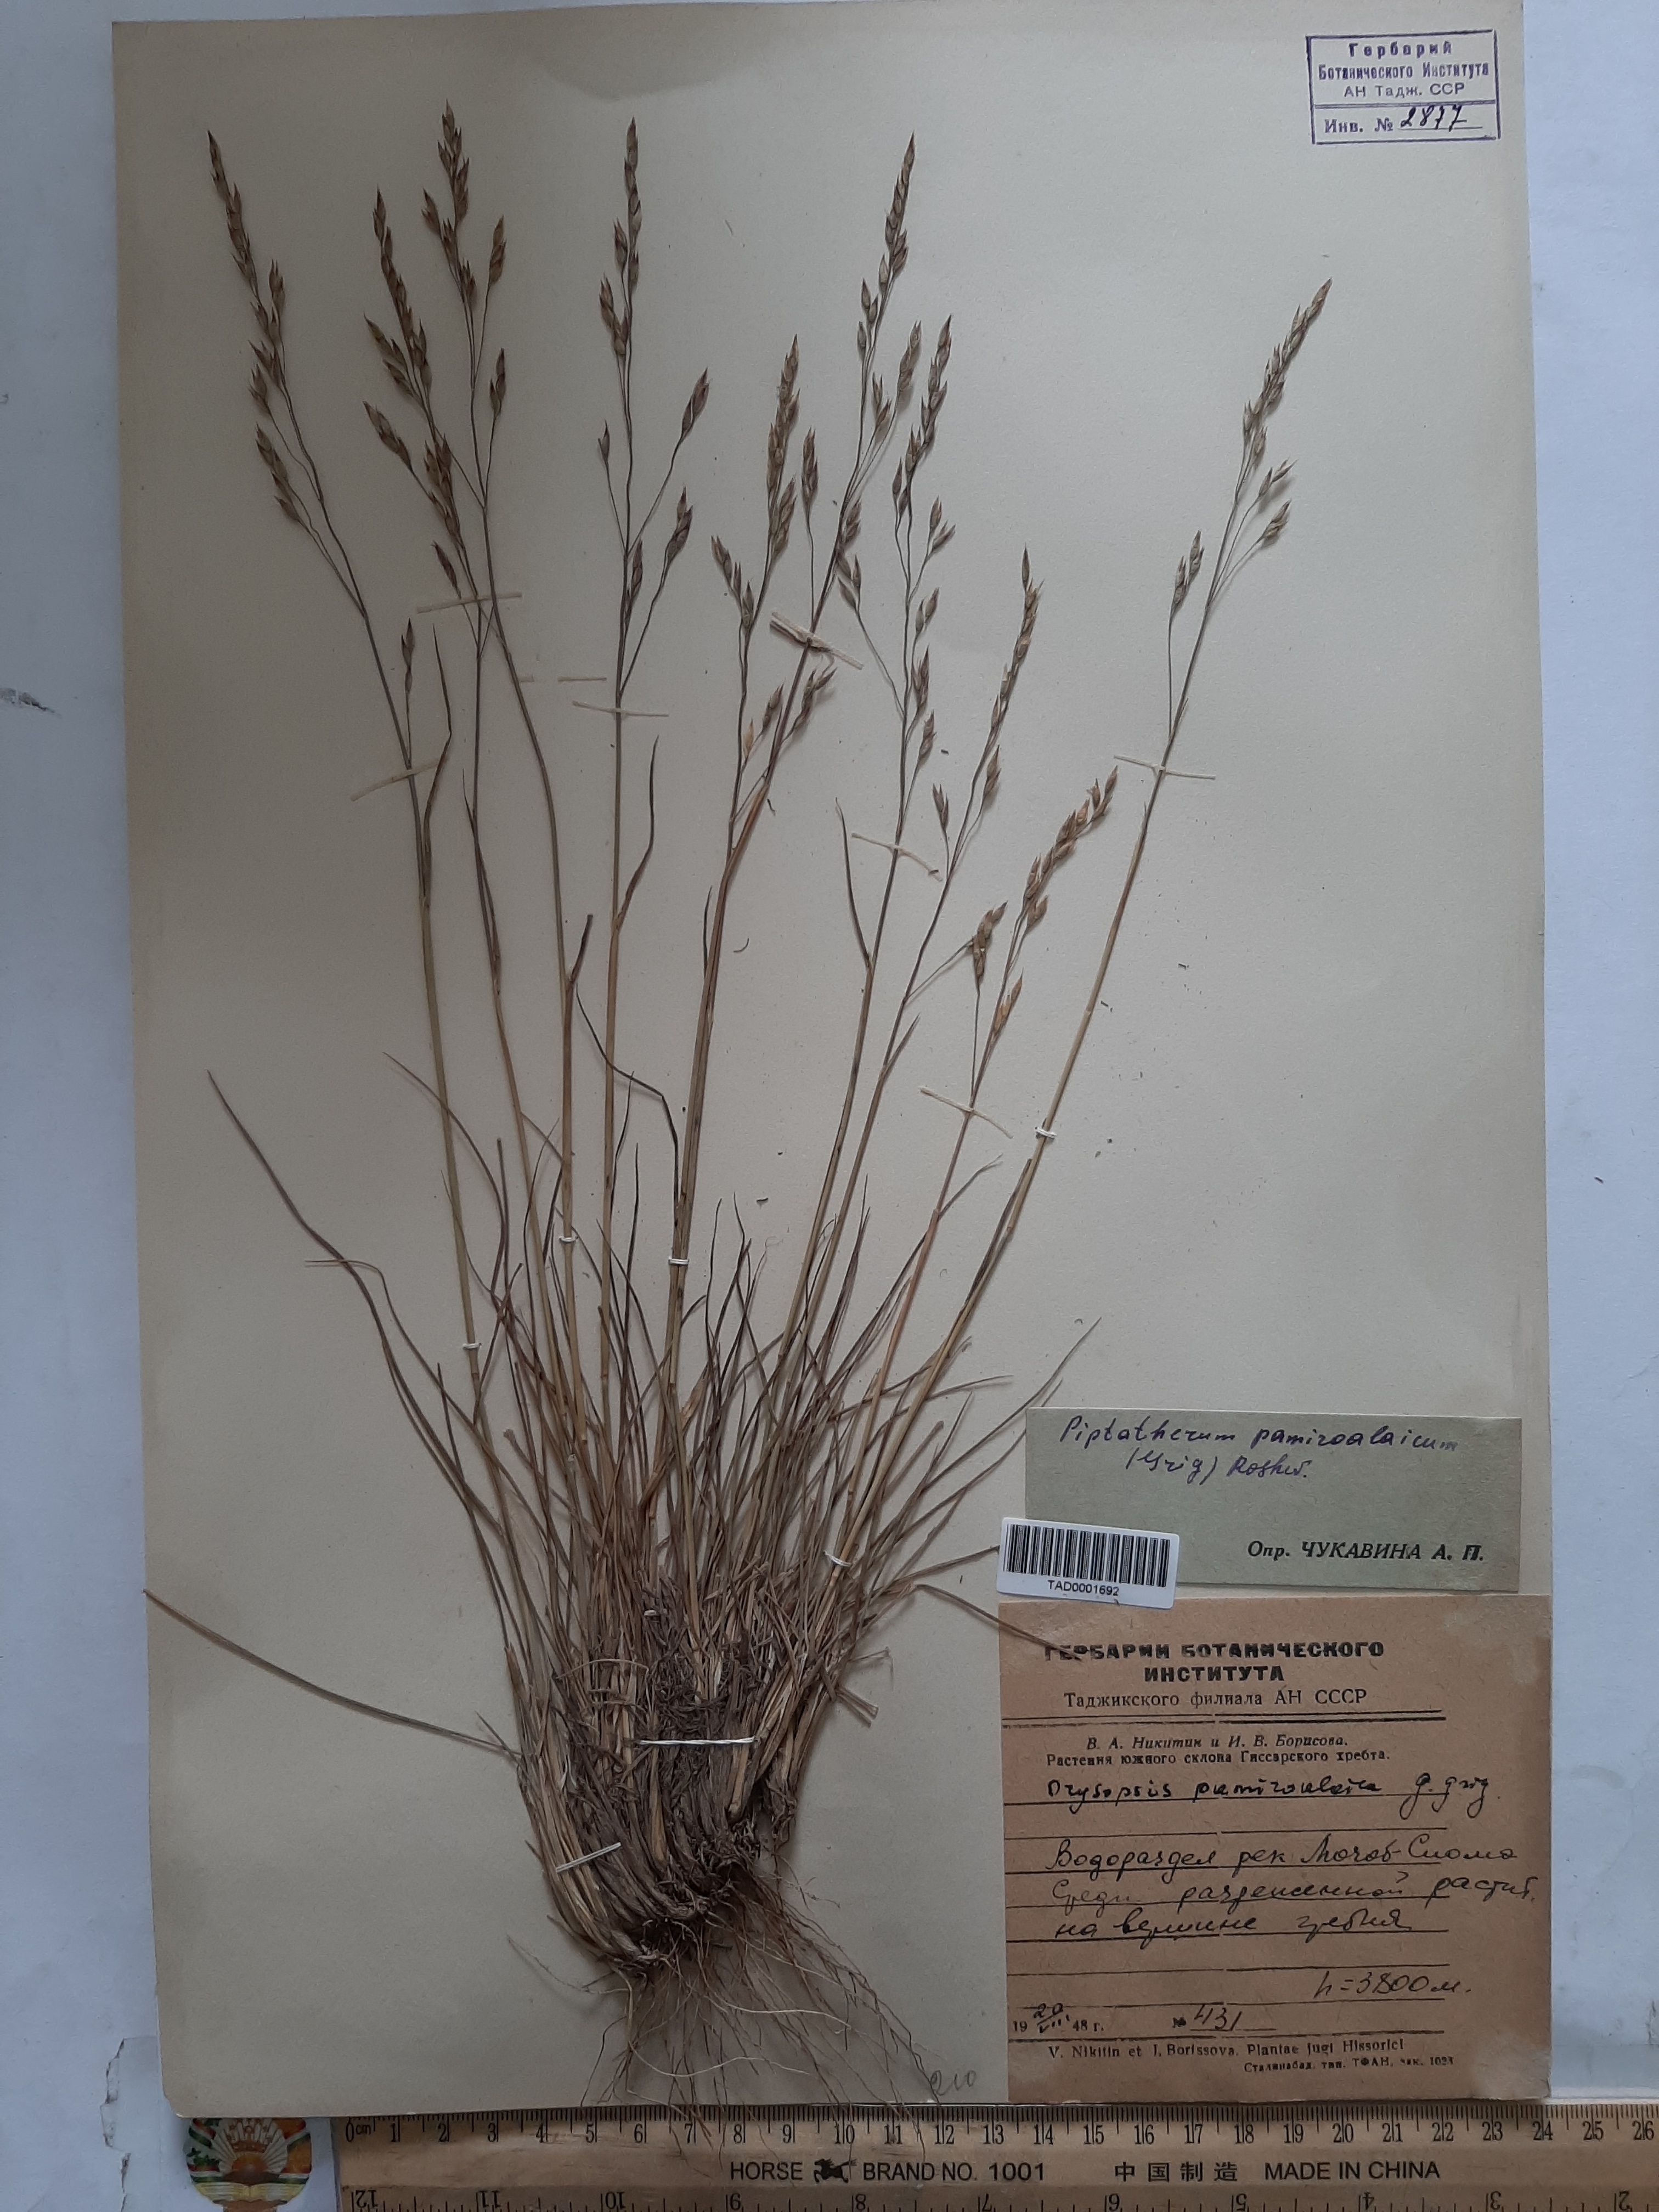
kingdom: Plantae
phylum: Tracheophyta
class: Liliopsida
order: Poales
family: Poaceae
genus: Piptatherum
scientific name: Piptatherum pamiralaicum
